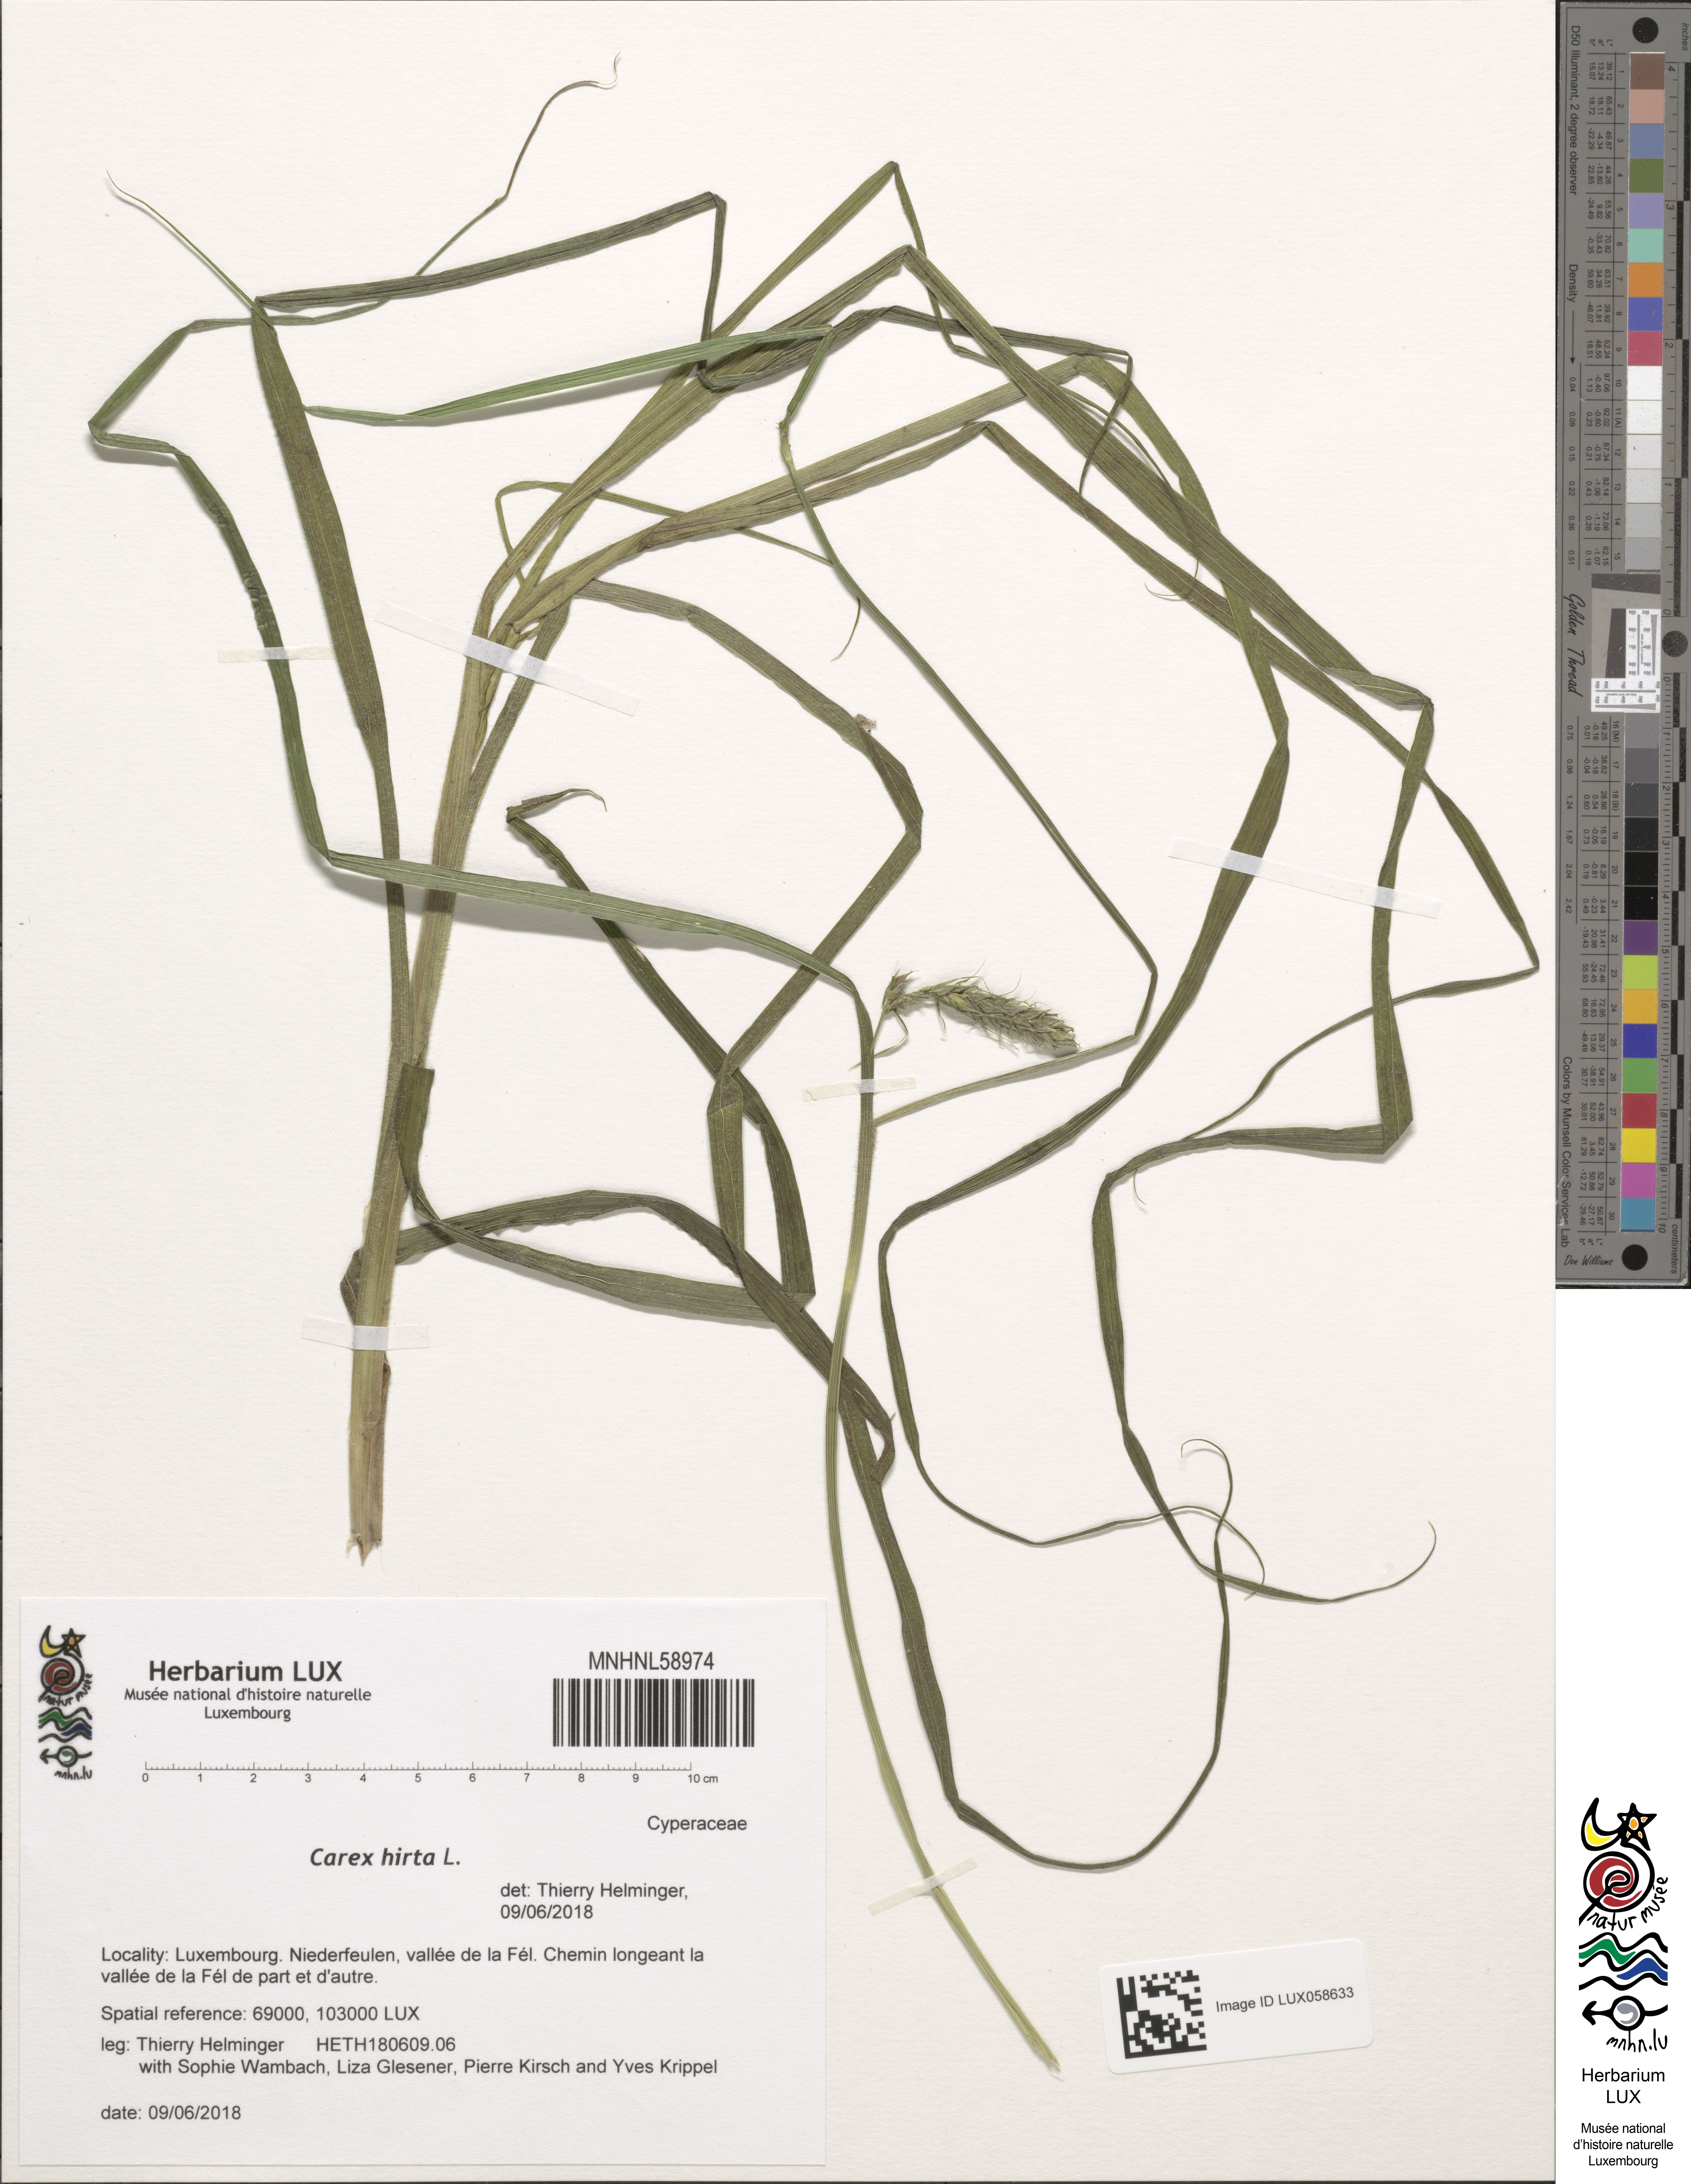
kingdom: Plantae
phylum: Tracheophyta
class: Liliopsida
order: Poales
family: Cyperaceae
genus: Carex
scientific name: Carex hirta
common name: Hairy sedge
